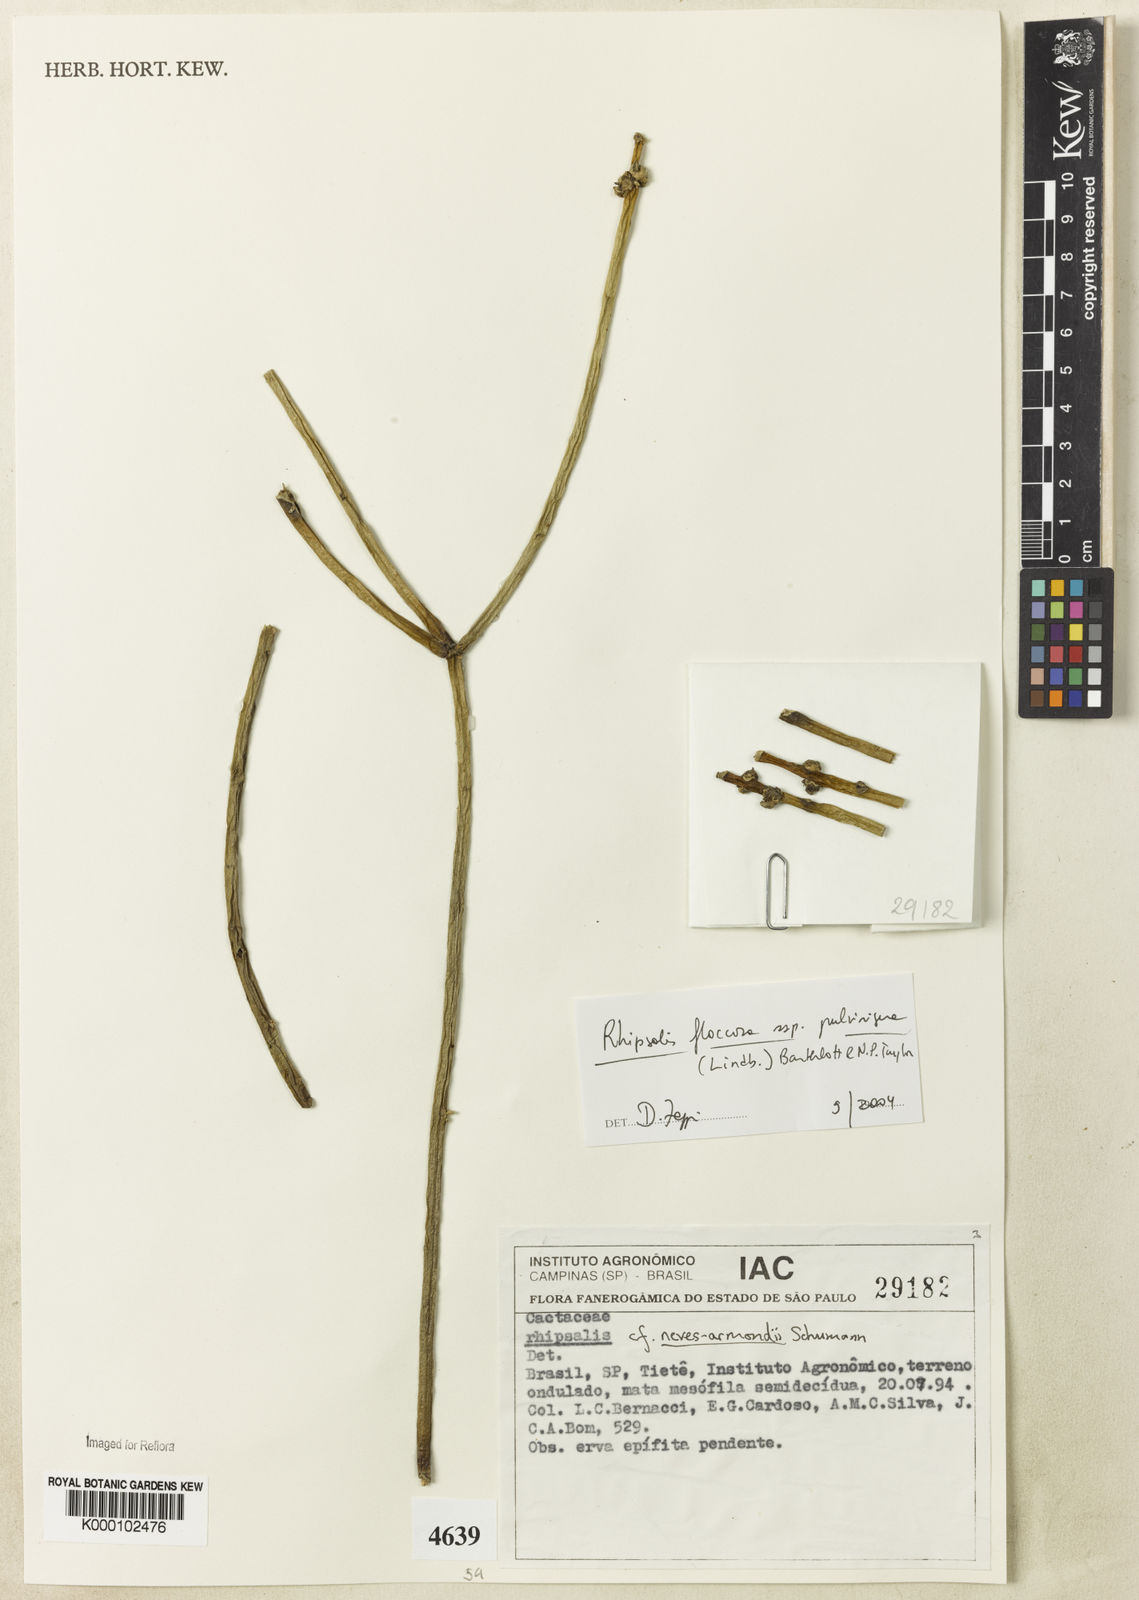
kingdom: Plantae
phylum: Tracheophyta
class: Magnoliopsida
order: Caryophyllales
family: Cactaceae
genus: Rhipsalis
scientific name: Rhipsalis floccosa
